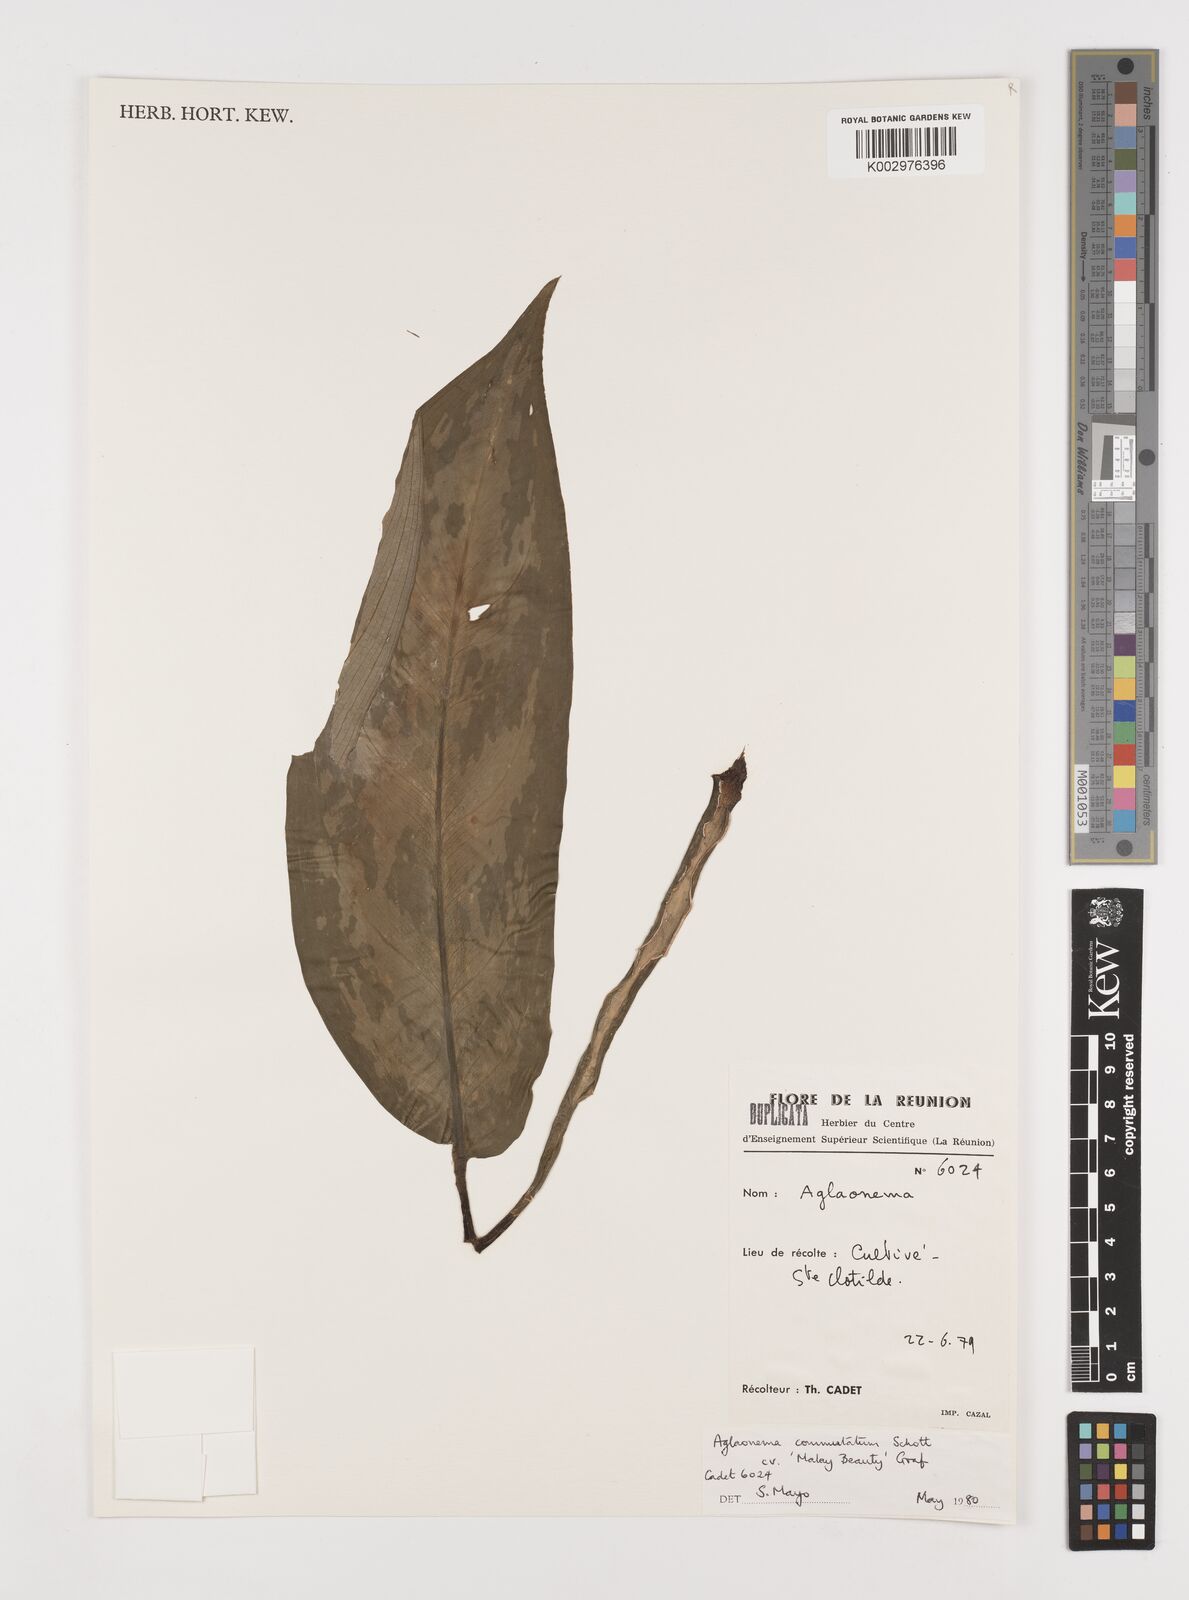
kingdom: Plantae
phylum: Tracheophyta
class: Liliopsida
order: Alismatales
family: Araceae
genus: Aglaonema
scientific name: Aglaonema commutatum
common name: Philippine evergreen
